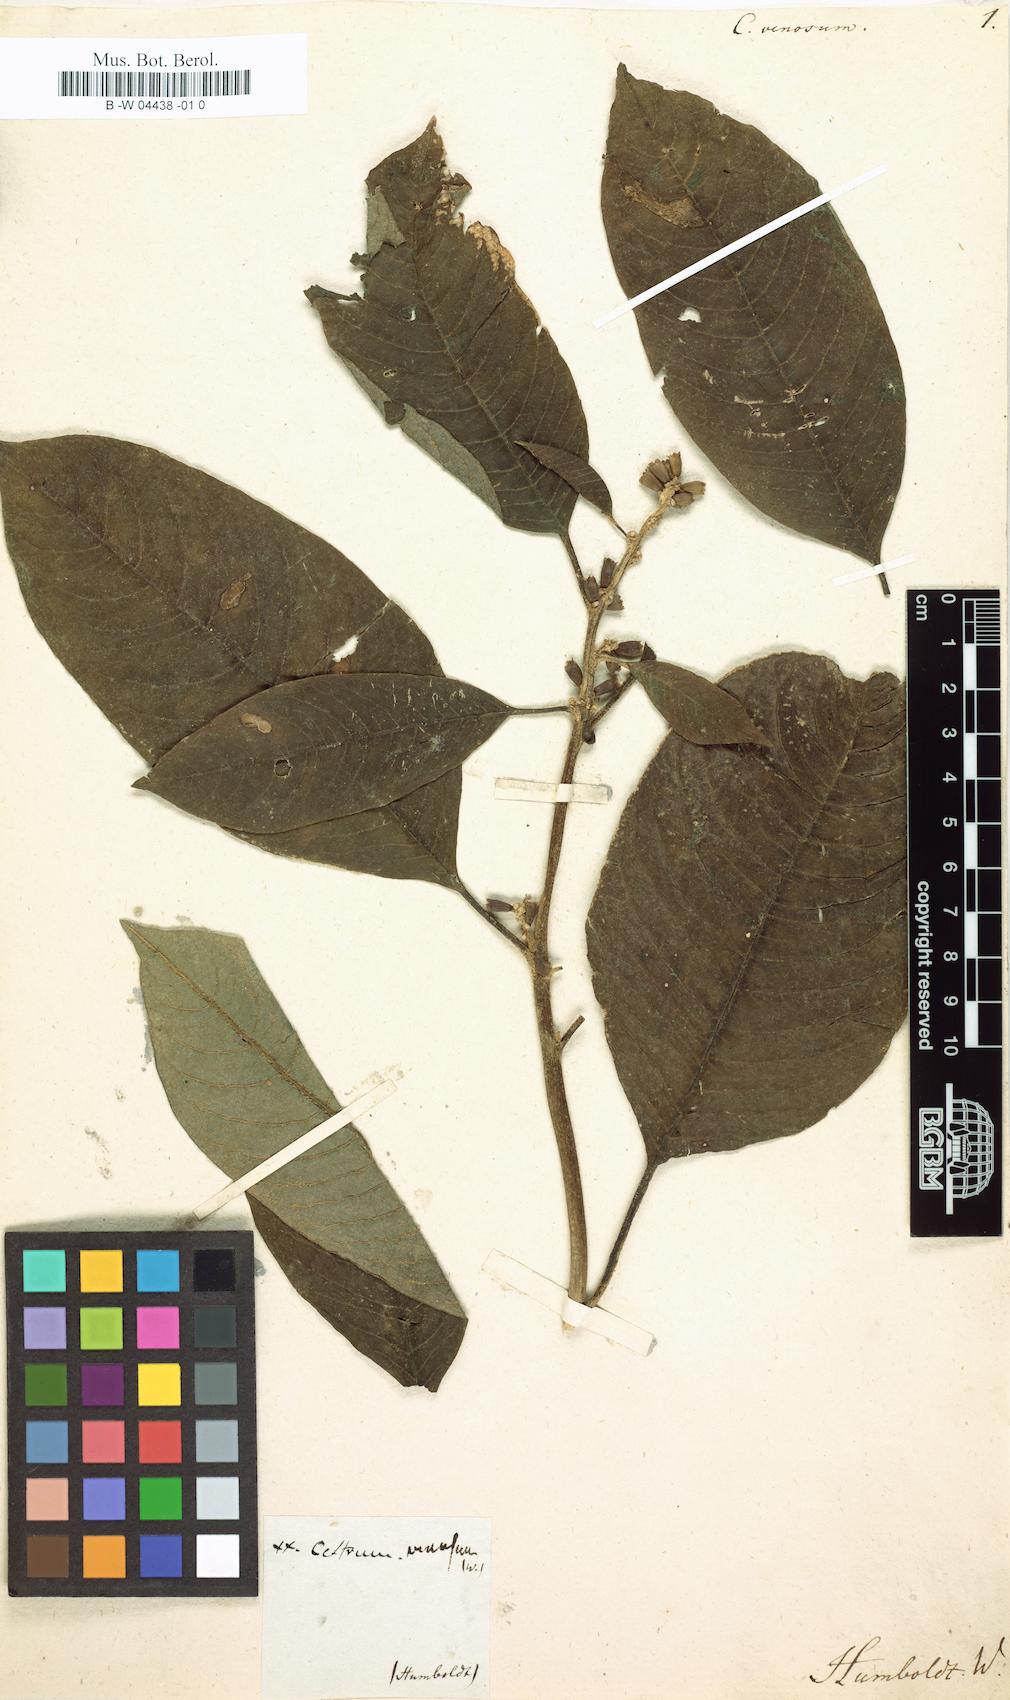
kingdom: Plantae
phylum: Tracheophyta
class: Magnoliopsida
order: Solanales
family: Solanaceae
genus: Cestrum
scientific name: Cestrum petiolare
